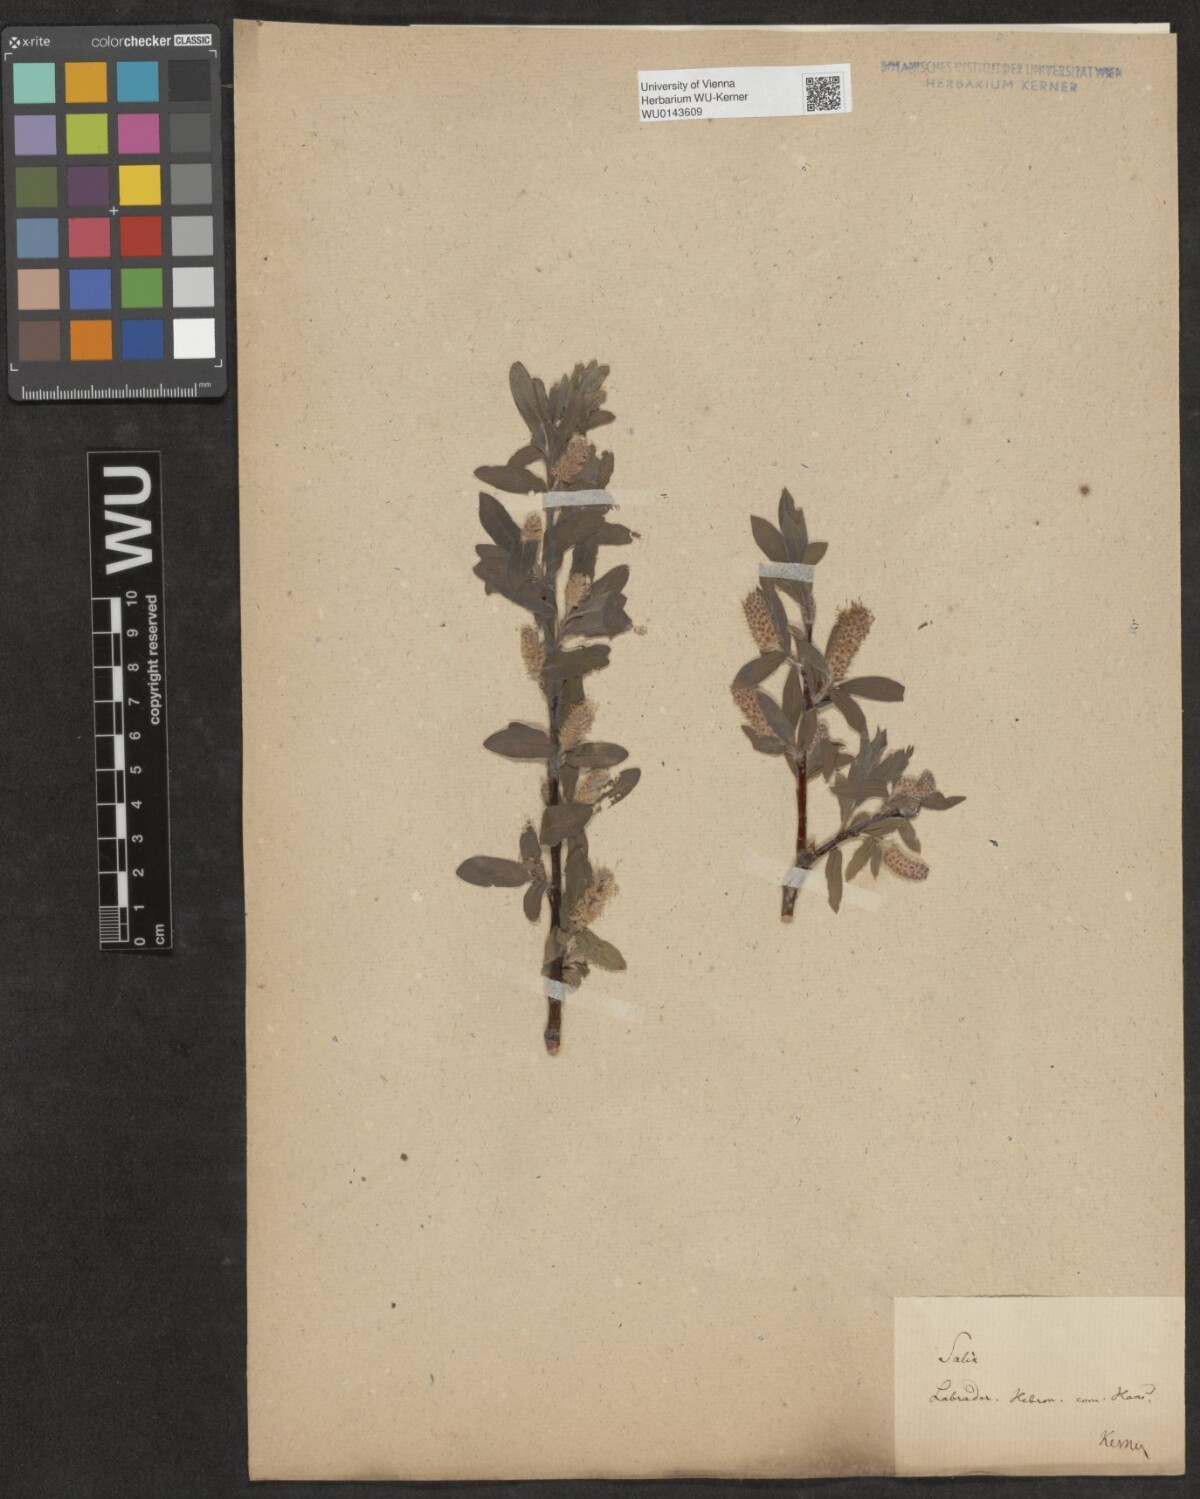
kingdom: Plantae
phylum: Tracheophyta
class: Magnoliopsida
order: Malpighiales
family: Salicaceae
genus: Salix
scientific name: Salix
